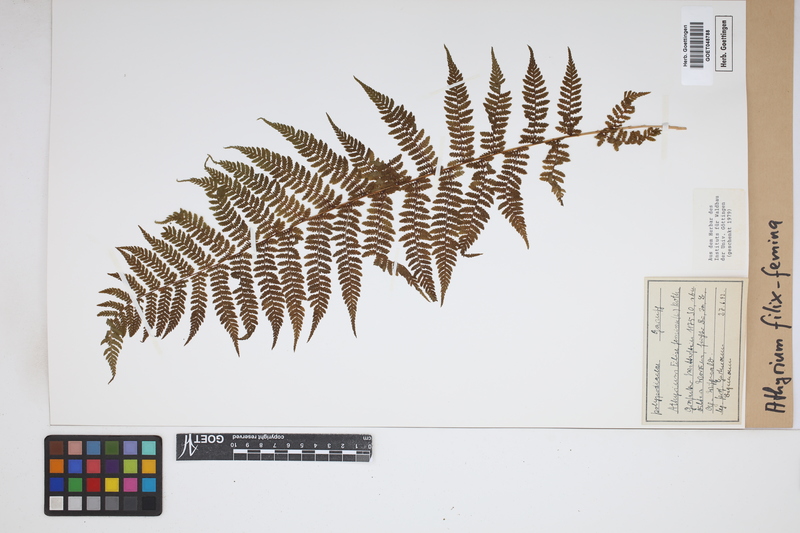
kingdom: Plantae
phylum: Tracheophyta
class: Polypodiopsida
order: Polypodiales
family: Athyriaceae
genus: Athyrium
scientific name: Athyrium filix-femina
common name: Lady fern
